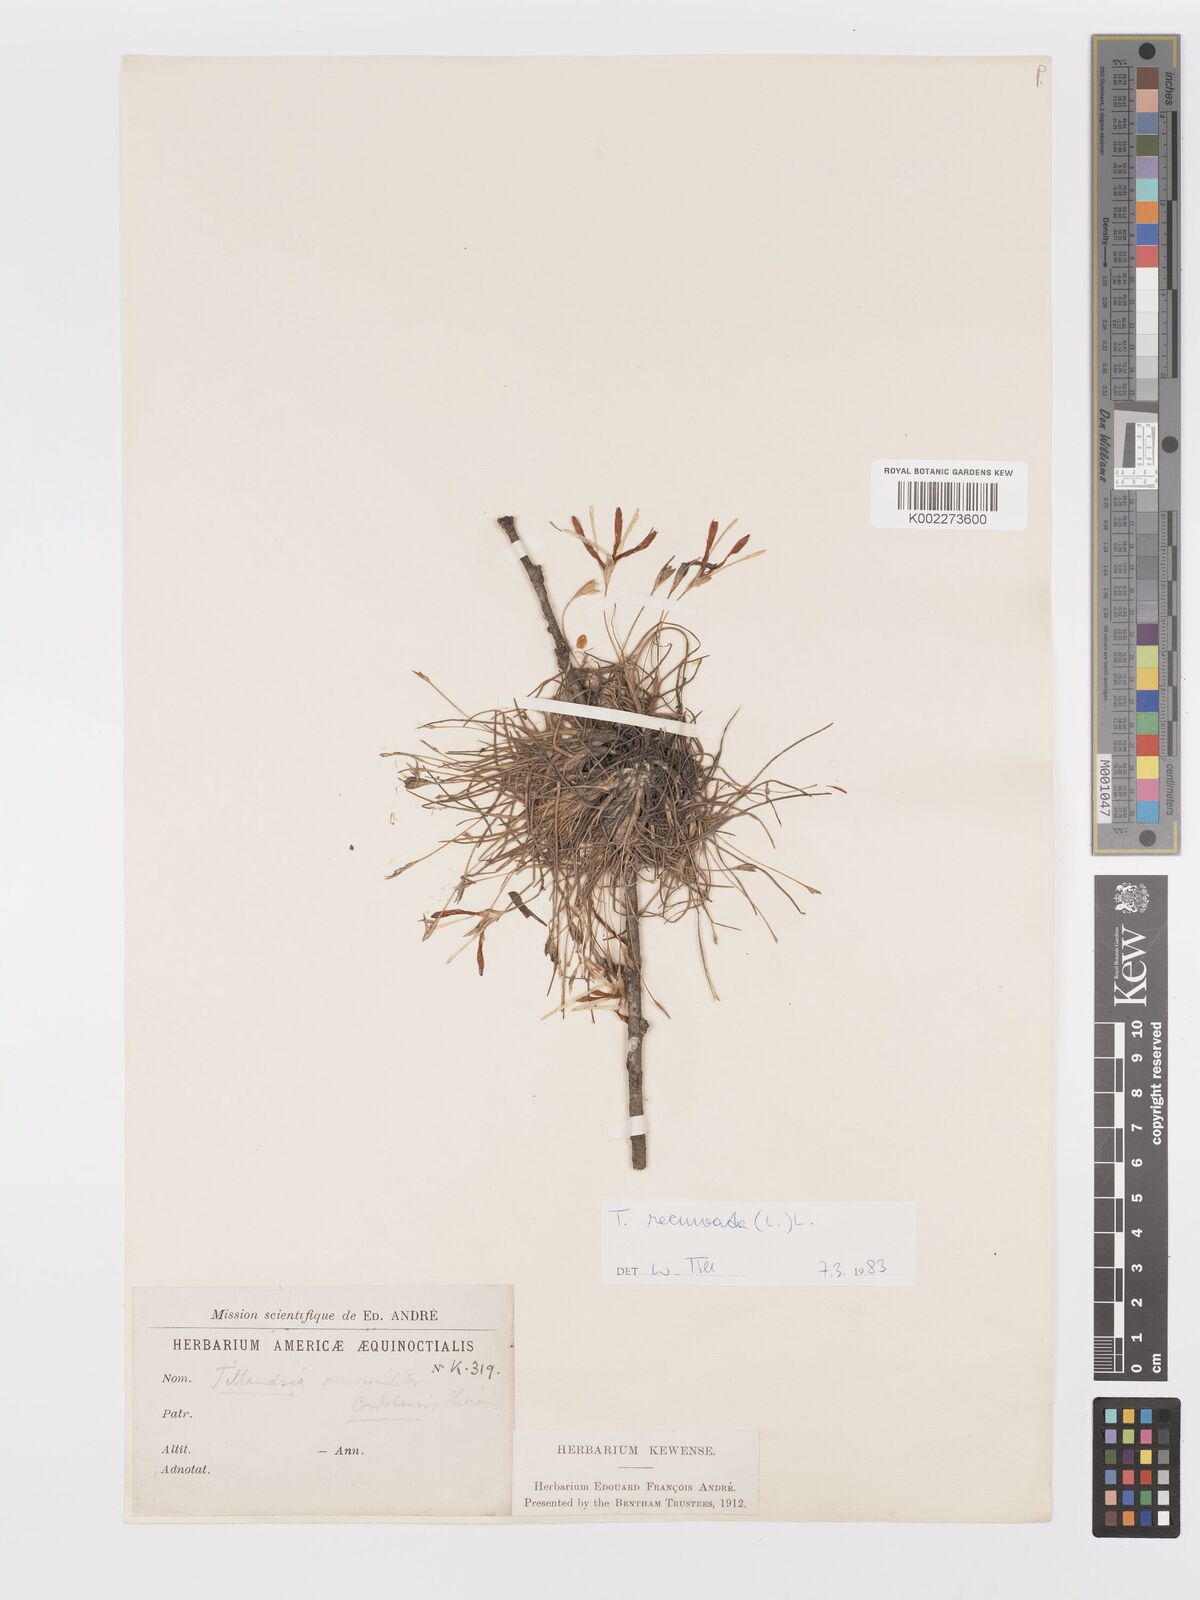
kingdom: Plantae
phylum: Tracheophyta
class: Liliopsida
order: Poales
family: Bromeliaceae
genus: Tillandsia
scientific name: Tillandsia recurvata
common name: Small ballmoss
